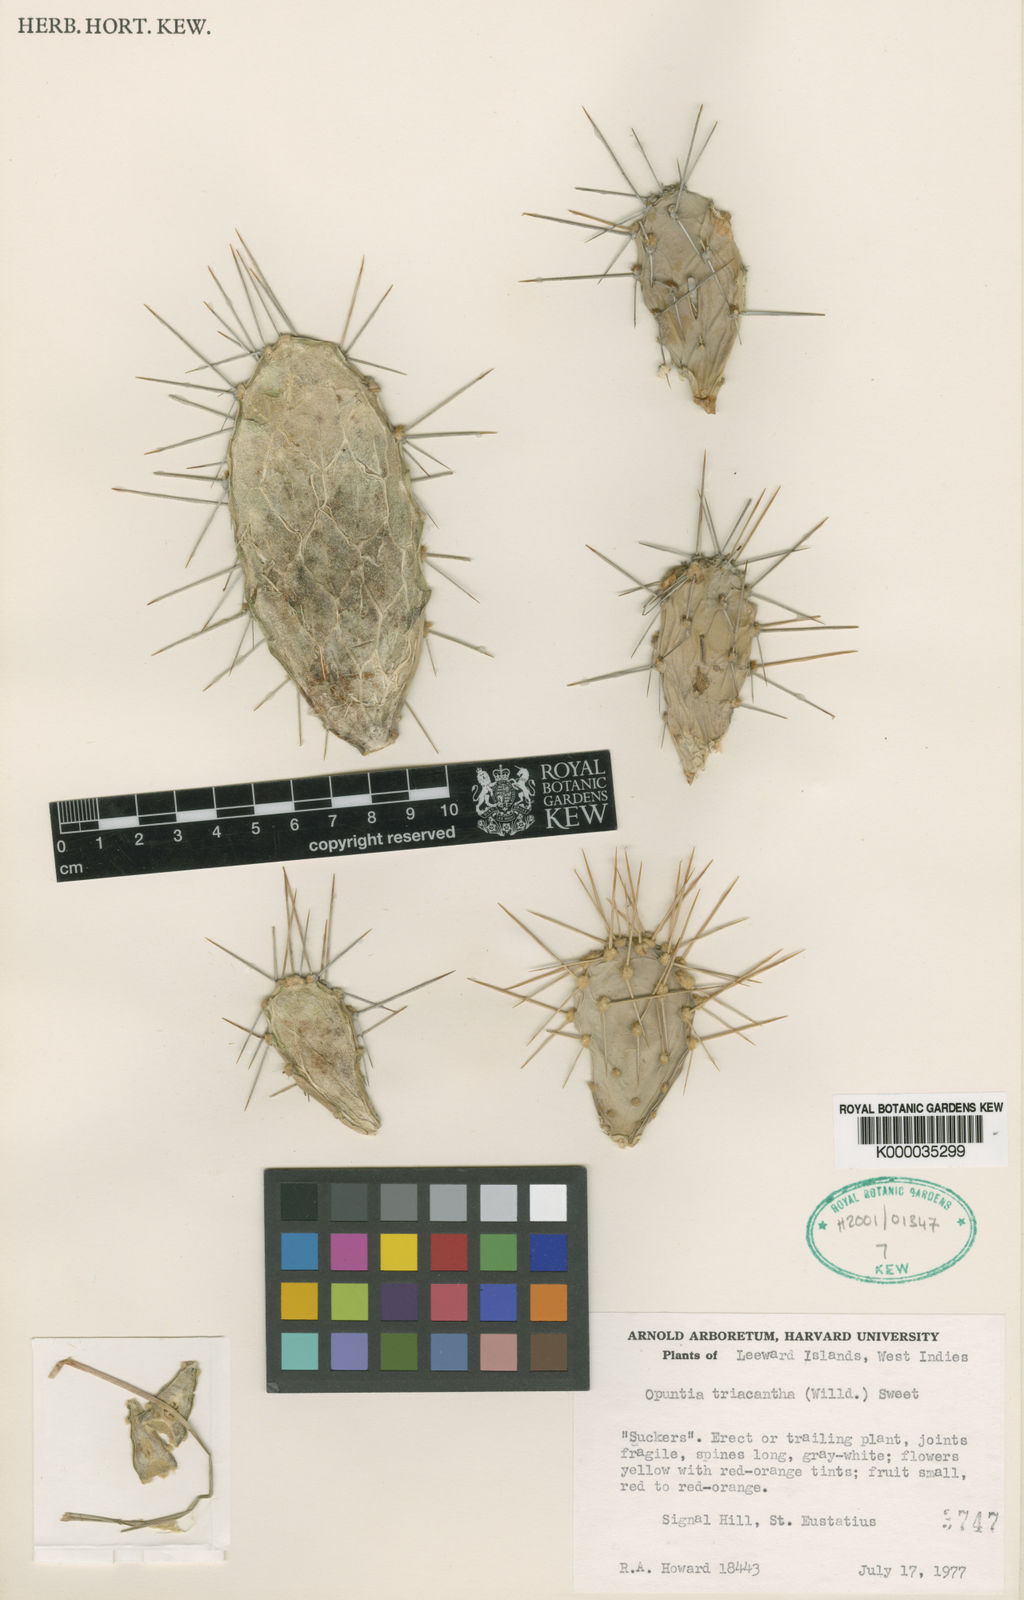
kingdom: Plantae
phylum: Tracheophyta
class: Magnoliopsida
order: Caryophyllales
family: Cactaceae
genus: Opuntia
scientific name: Opuntia
